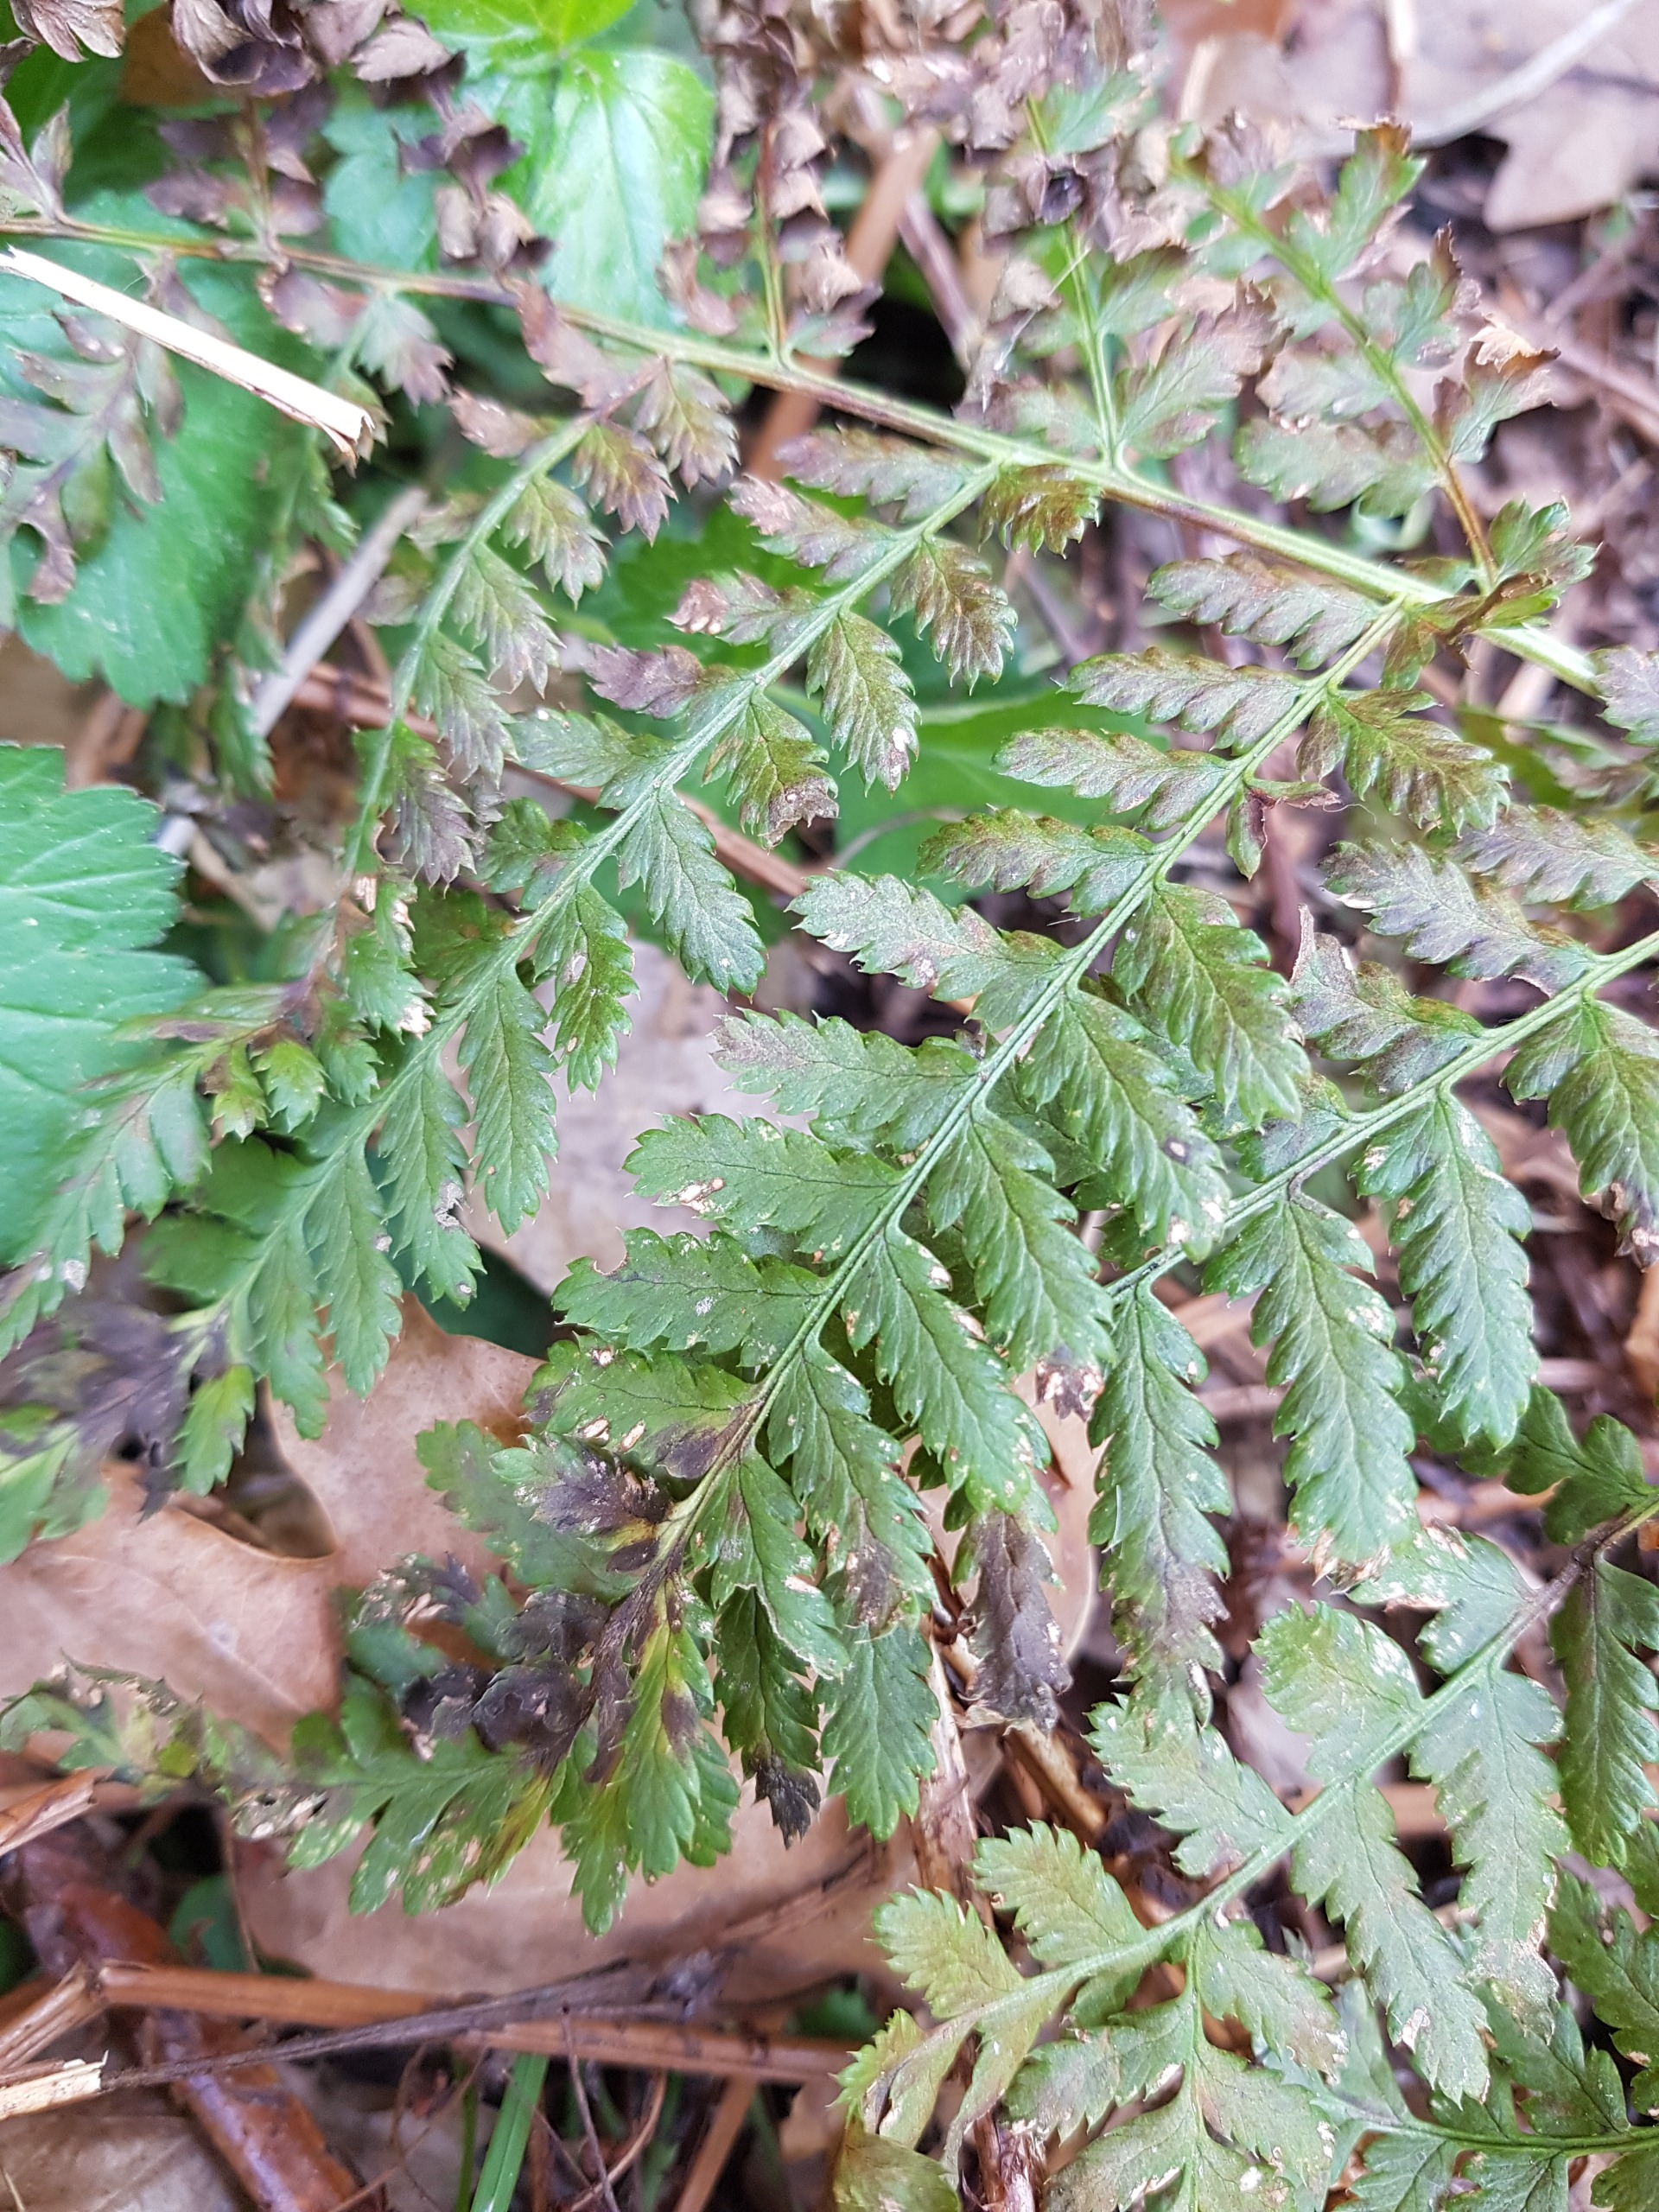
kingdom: Plantae
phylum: Tracheophyta
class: Polypodiopsida
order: Polypodiales
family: Dryopteridaceae
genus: Dryopteris
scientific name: Dryopteris dilatata
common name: Bredbladet mangeløv
